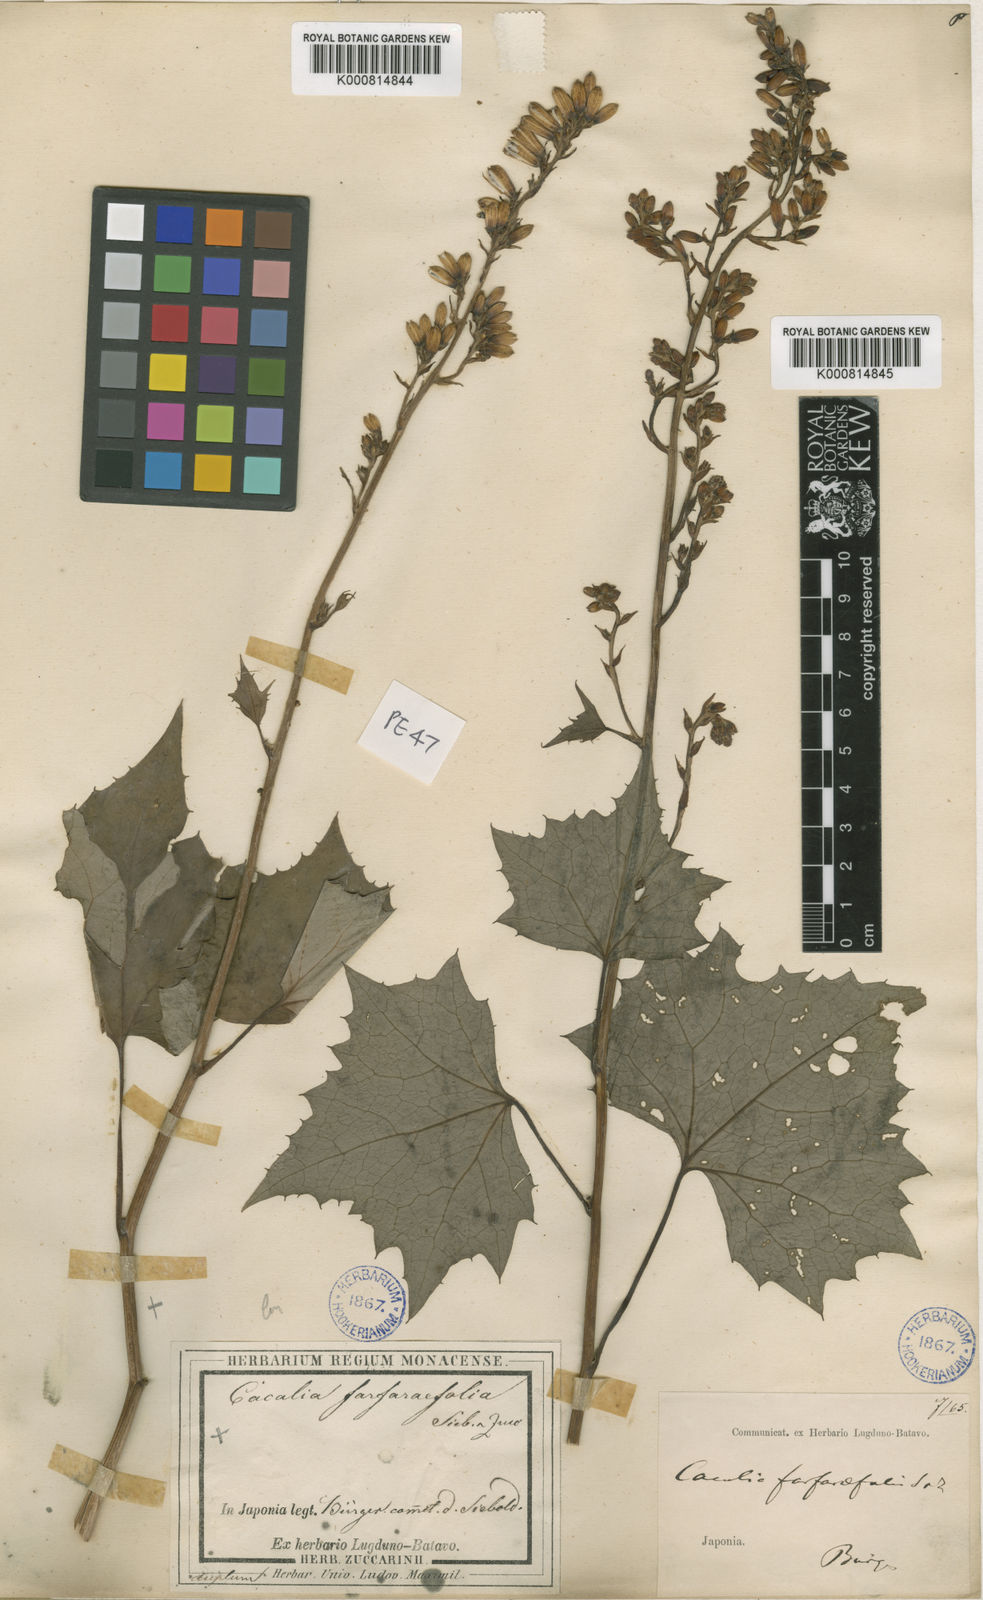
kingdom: Plantae
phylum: Tracheophyta
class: Magnoliopsida
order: Asterales
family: Asteraceae
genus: Parasenecio
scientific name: Parasenecio farfarifolius
